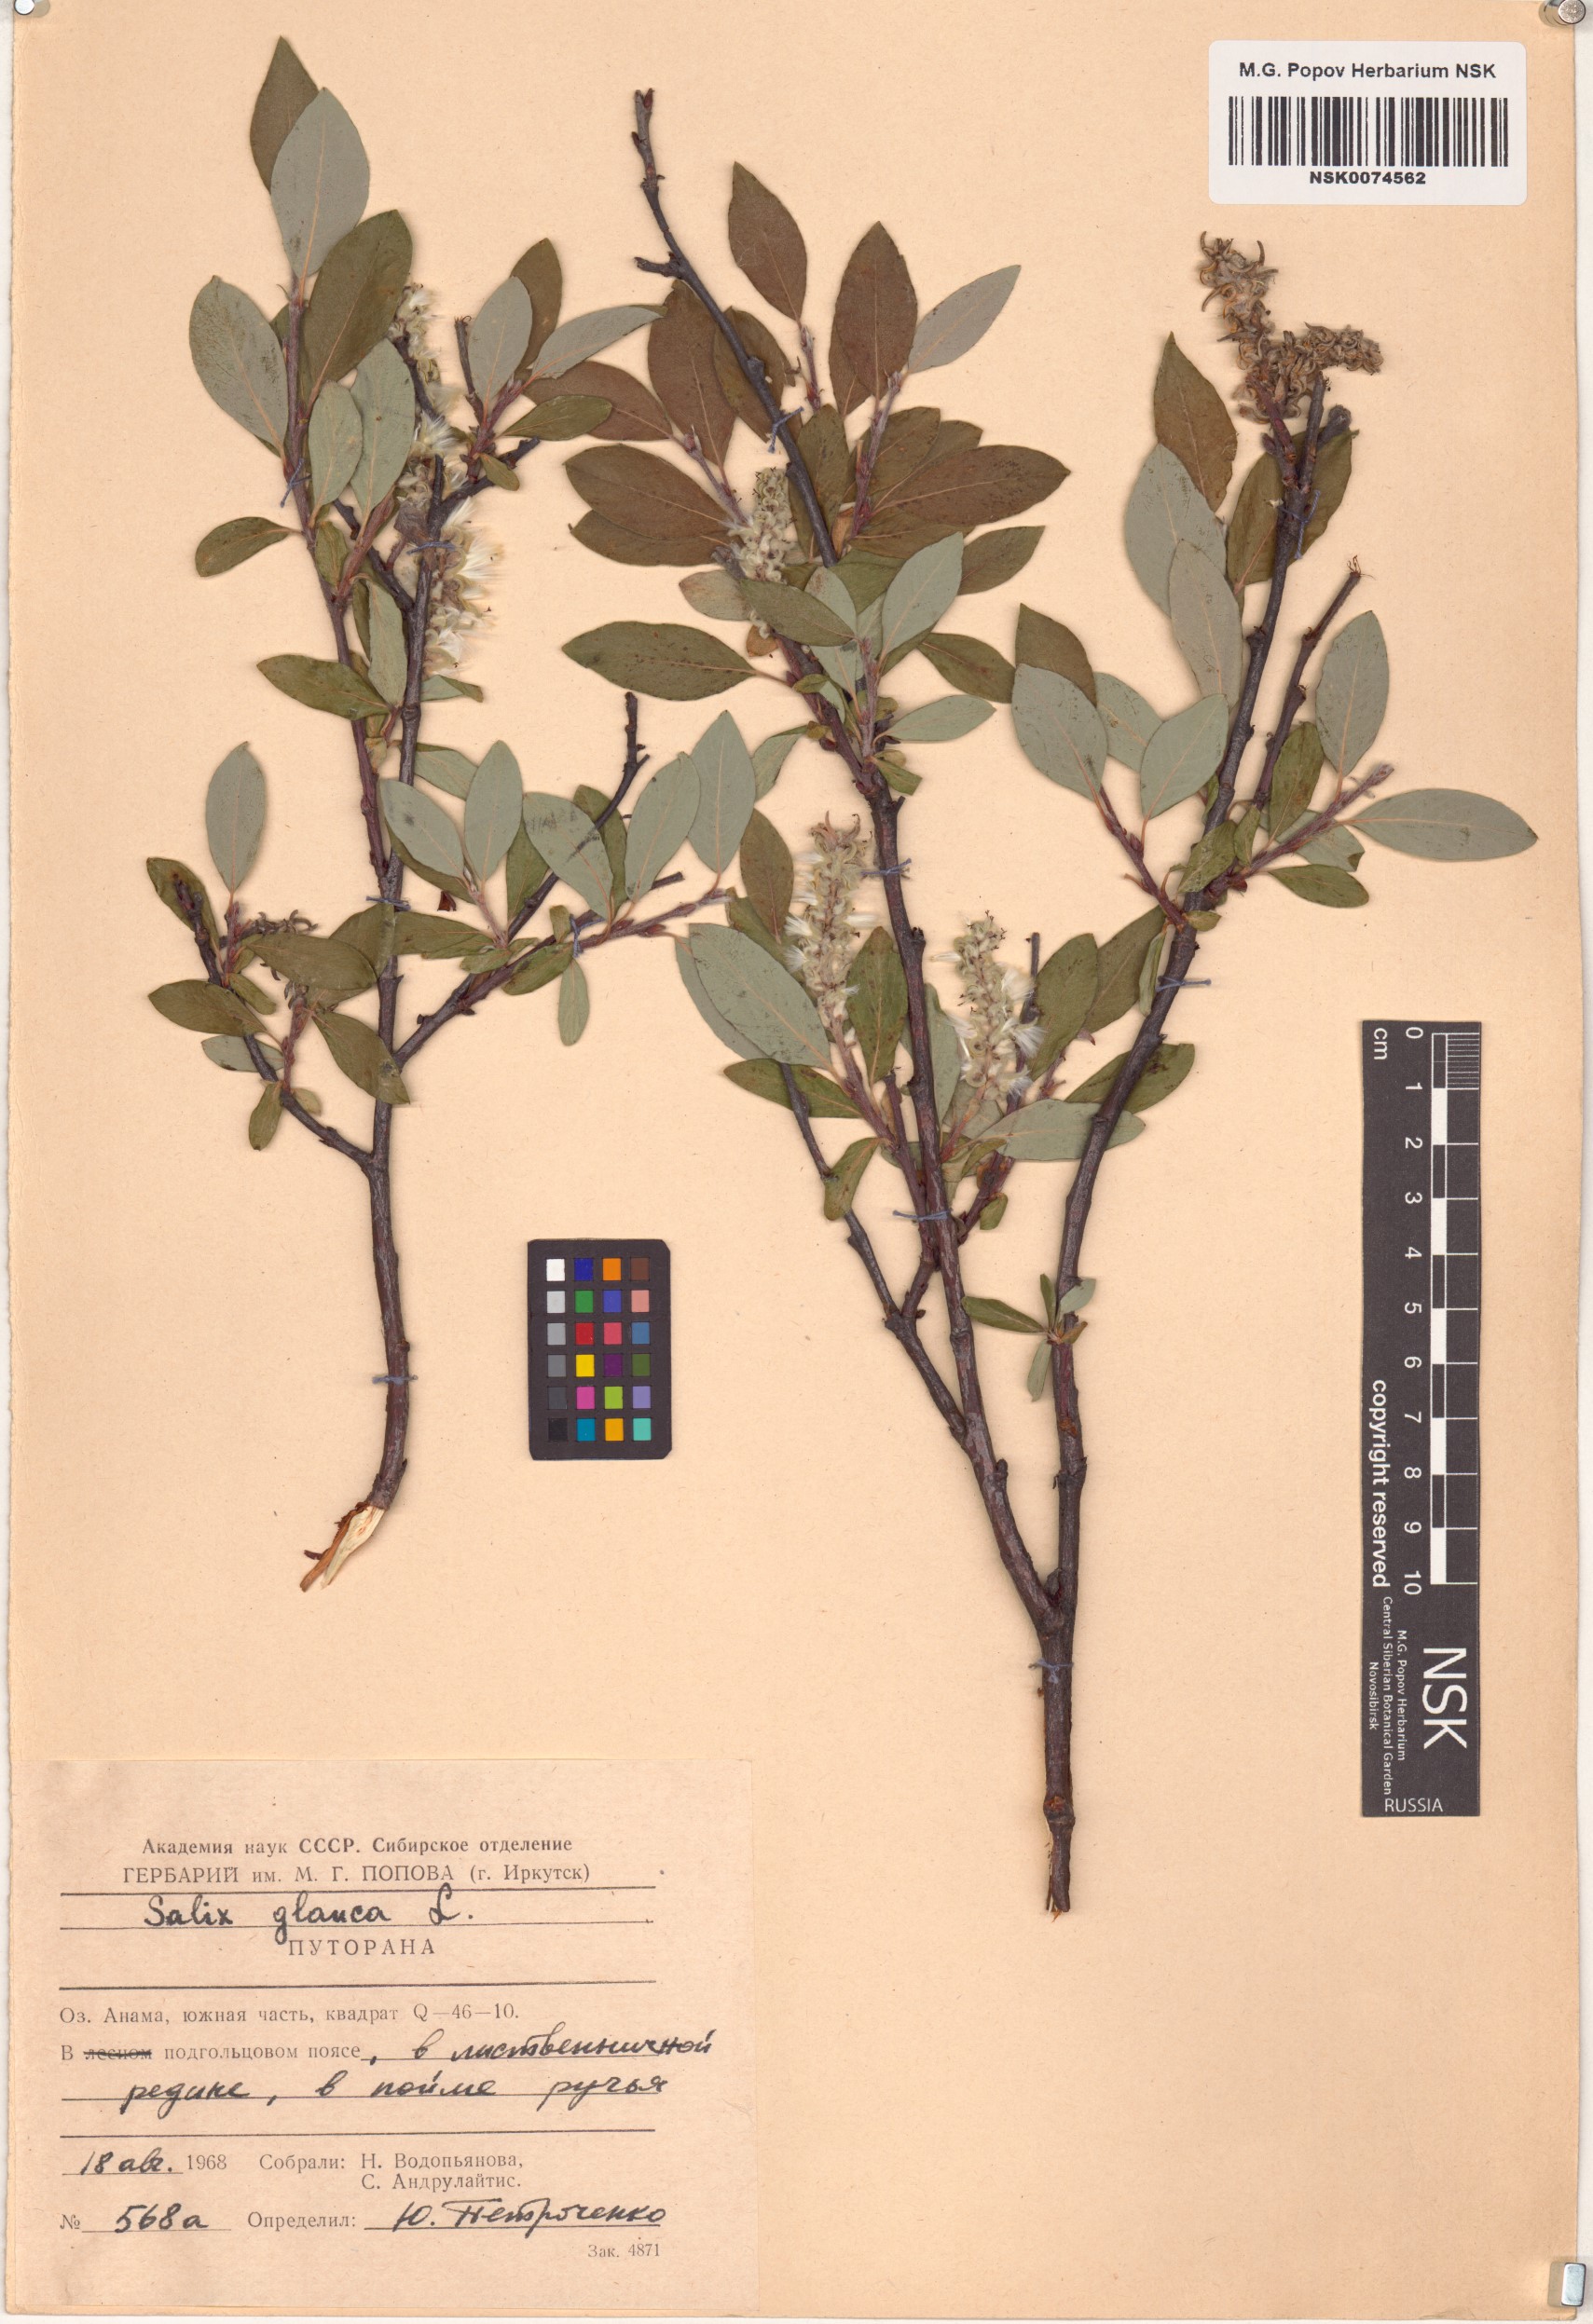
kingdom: Plantae
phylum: Tracheophyta
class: Magnoliopsida
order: Malpighiales
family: Salicaceae
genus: Salix
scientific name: Salix glauca
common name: Glaucous willow
